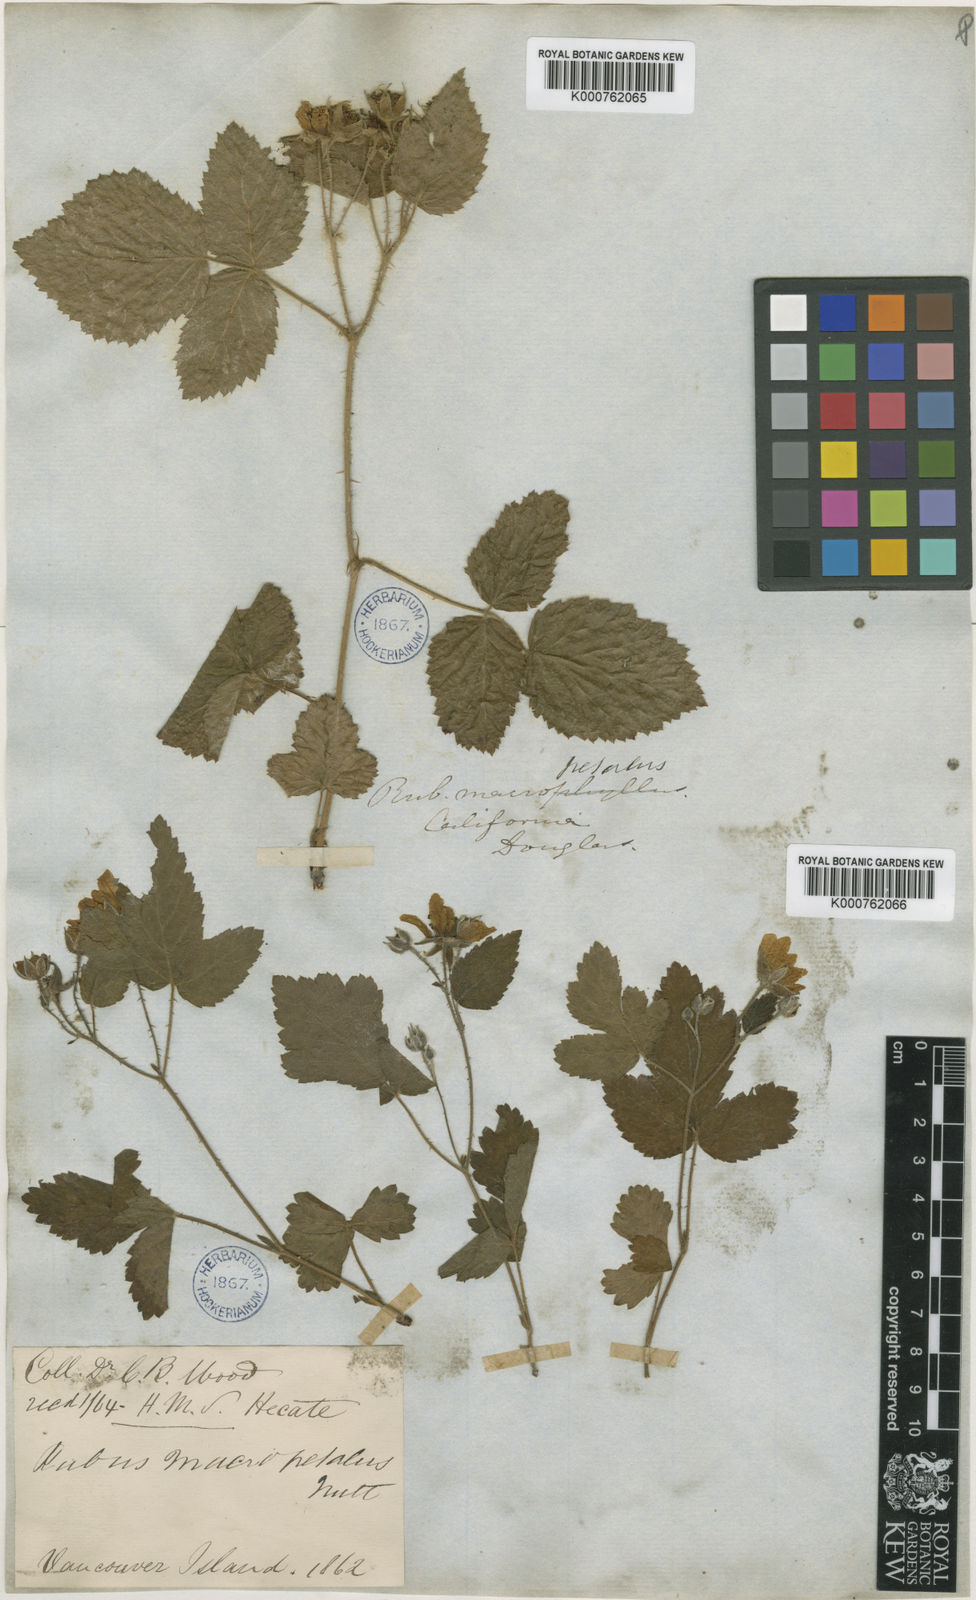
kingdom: Plantae
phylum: Tracheophyta
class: Magnoliopsida
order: Rosales
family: Rosaceae
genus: Rubus
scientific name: Rubus macropetalus
